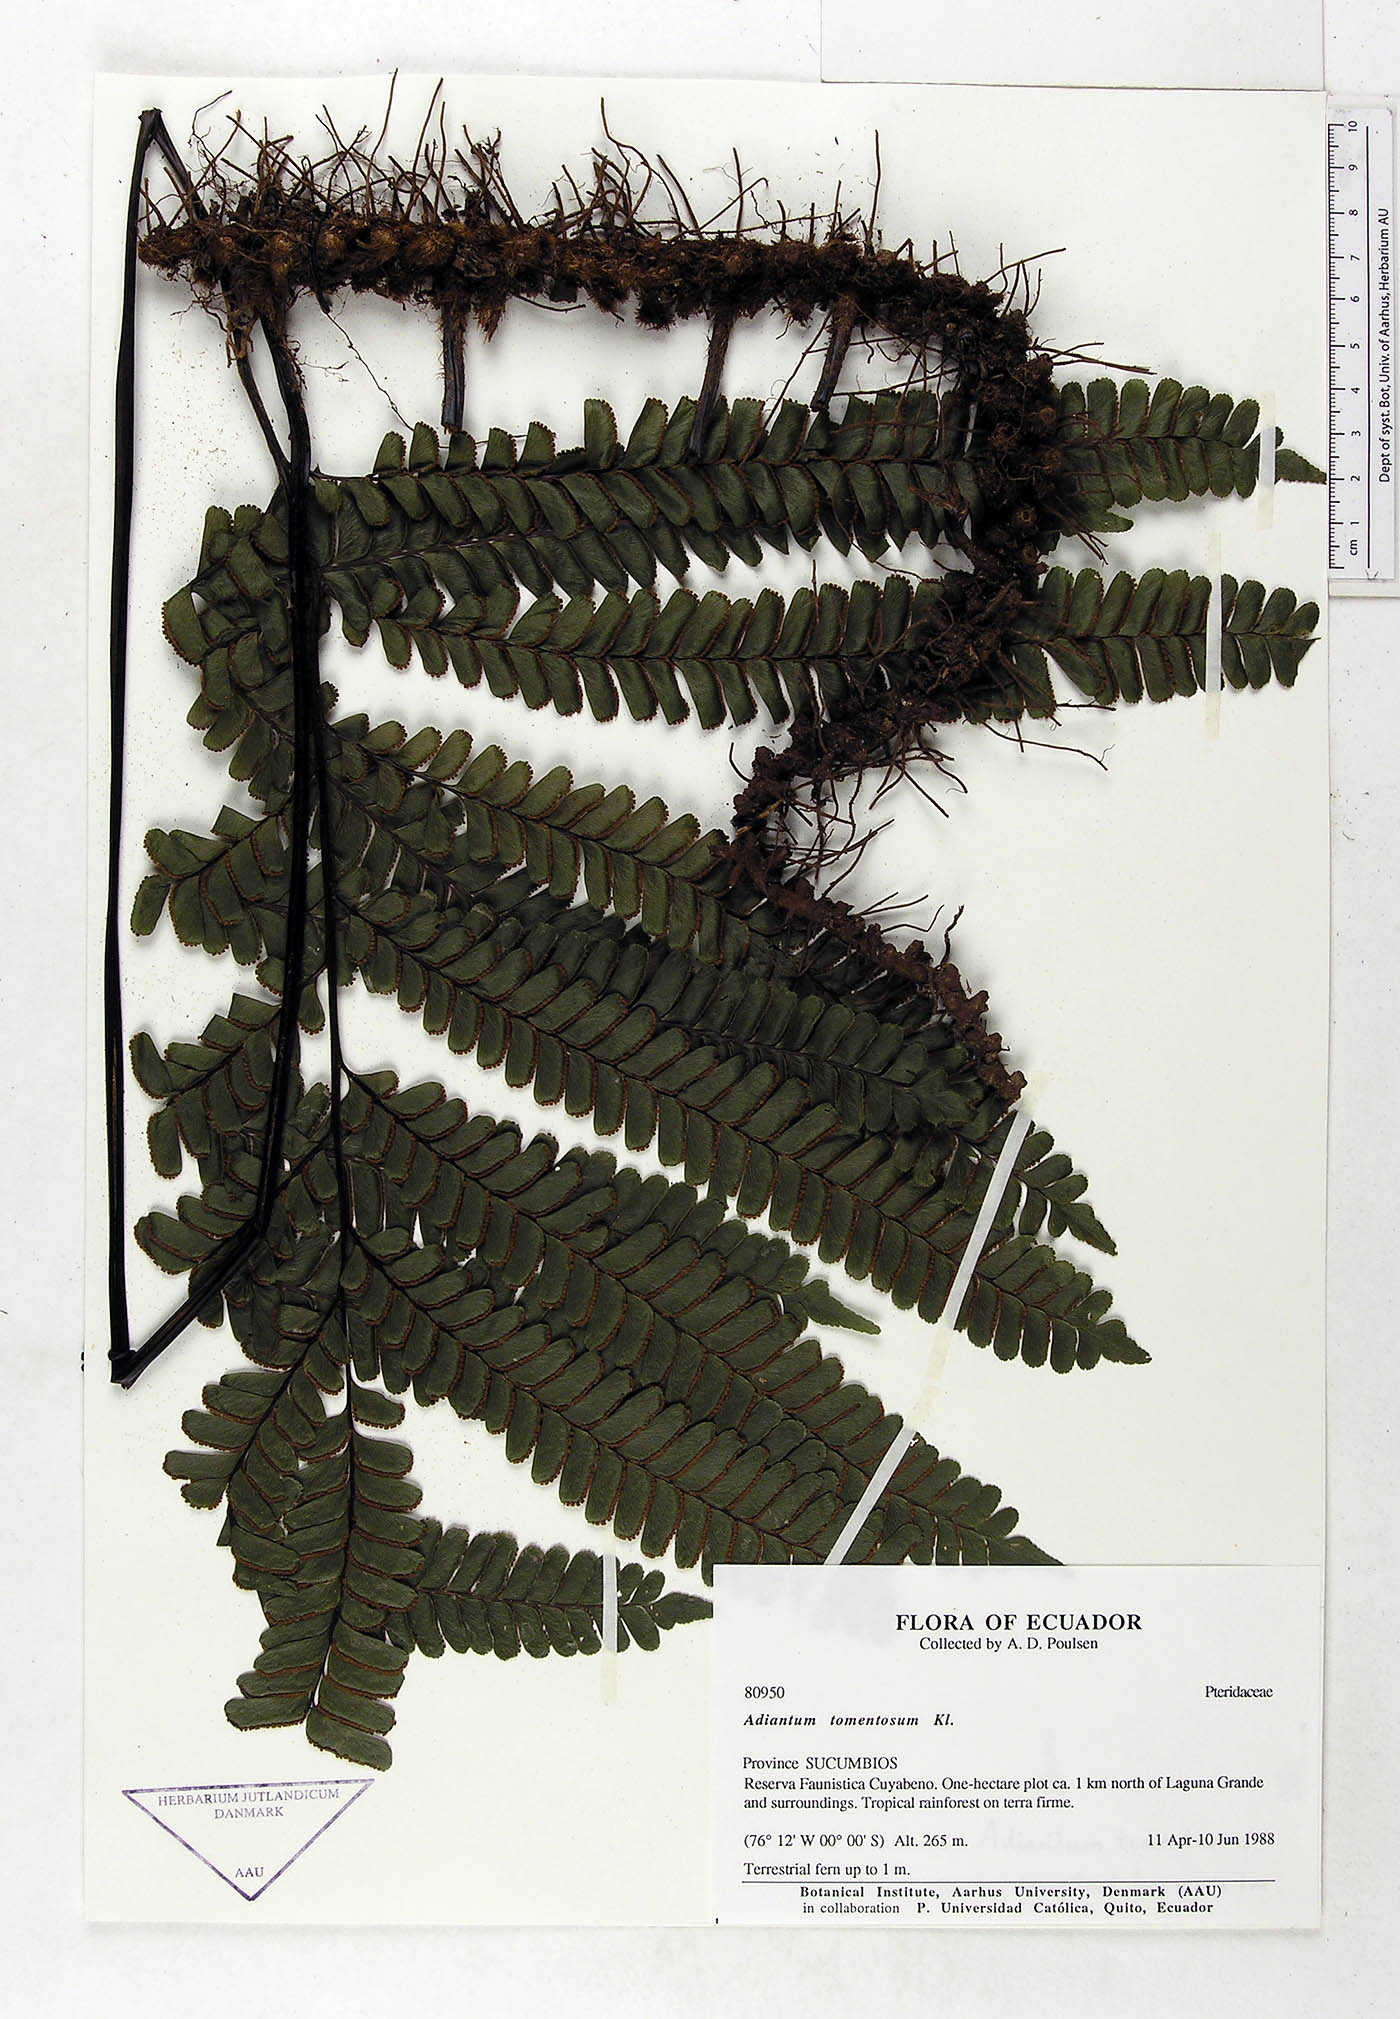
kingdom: Plantae
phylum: Tracheophyta
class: Polypodiopsida
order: Polypodiales
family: Pteridaceae
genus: Adiantum
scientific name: Adiantum tomentosum
